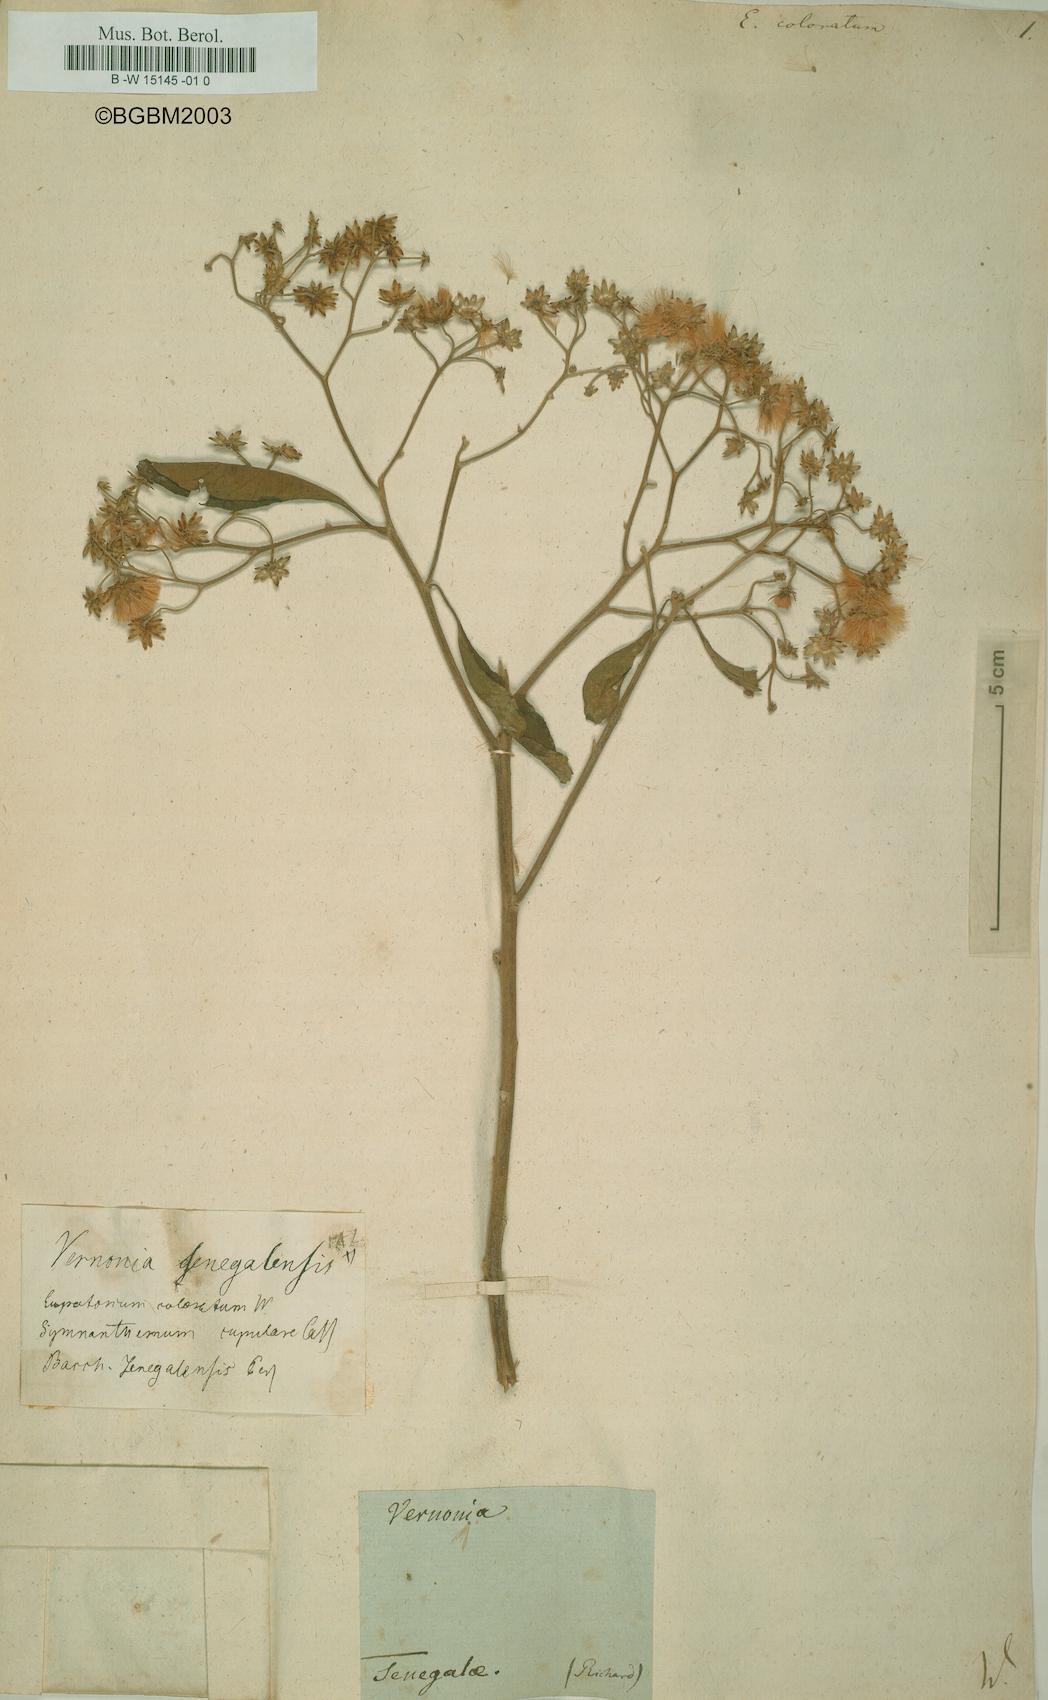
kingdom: Plantae
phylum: Tracheophyta
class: Magnoliopsida
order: Asterales
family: Asteraceae
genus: Eupatorium
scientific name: Eupatorium coloratum
